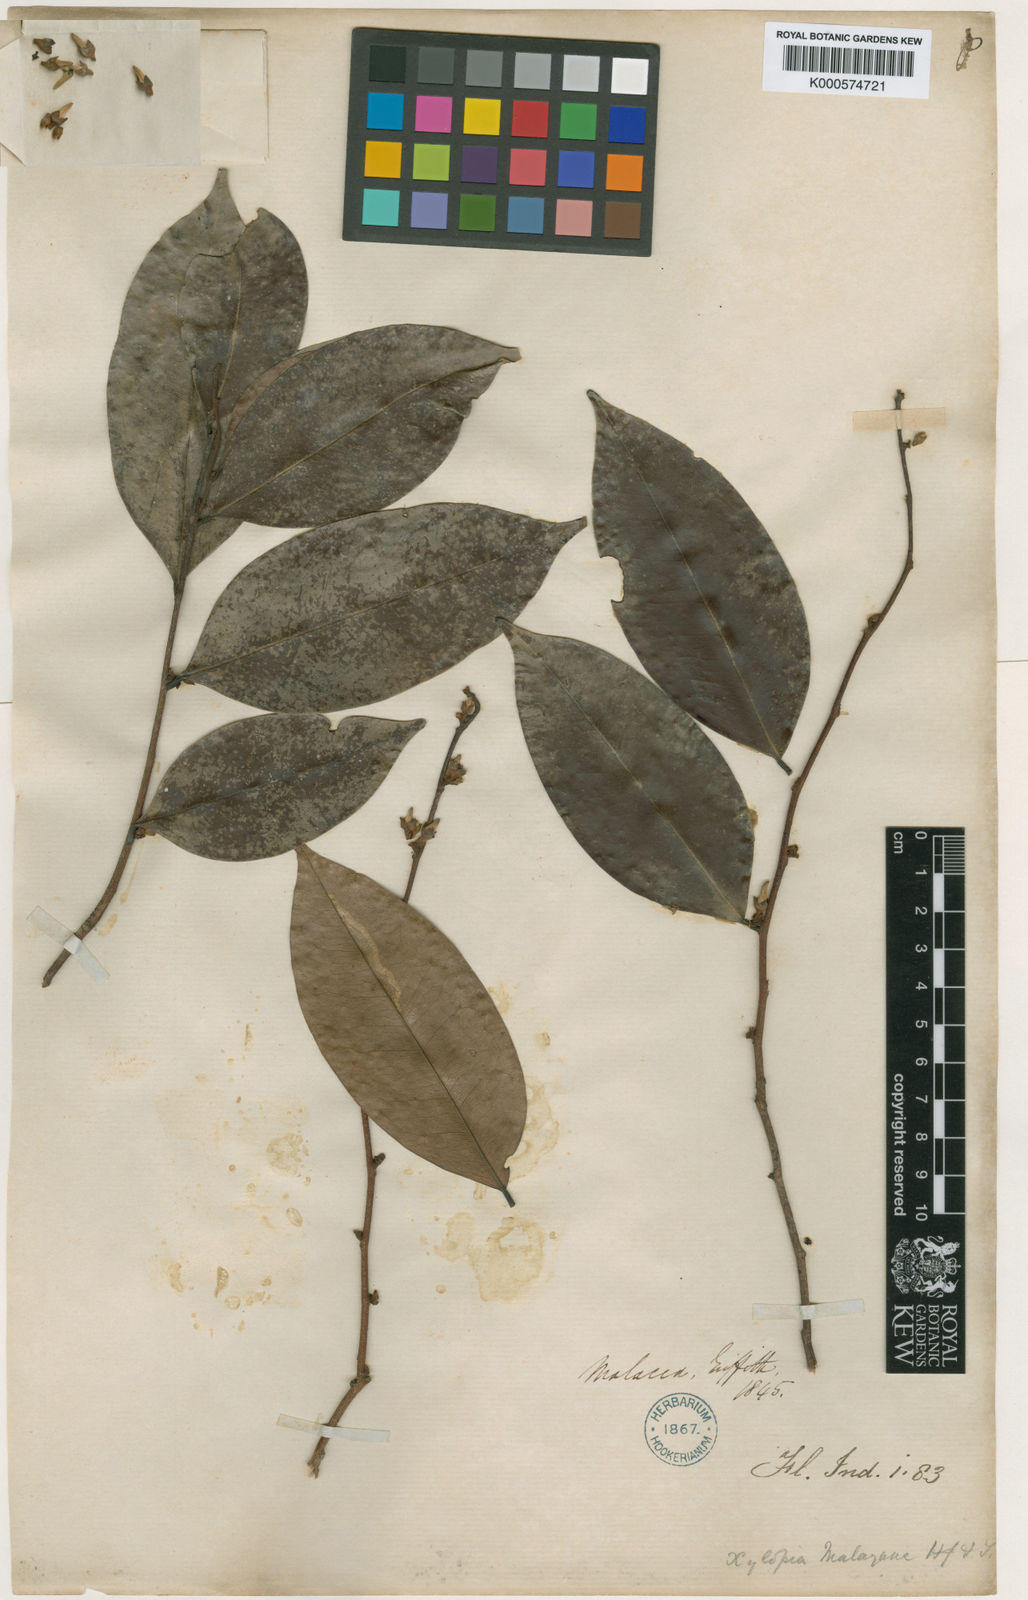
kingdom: Plantae
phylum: Tracheophyta
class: Magnoliopsida
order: Magnoliales
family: Annonaceae
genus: Xylopia
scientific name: Xylopia malayana
